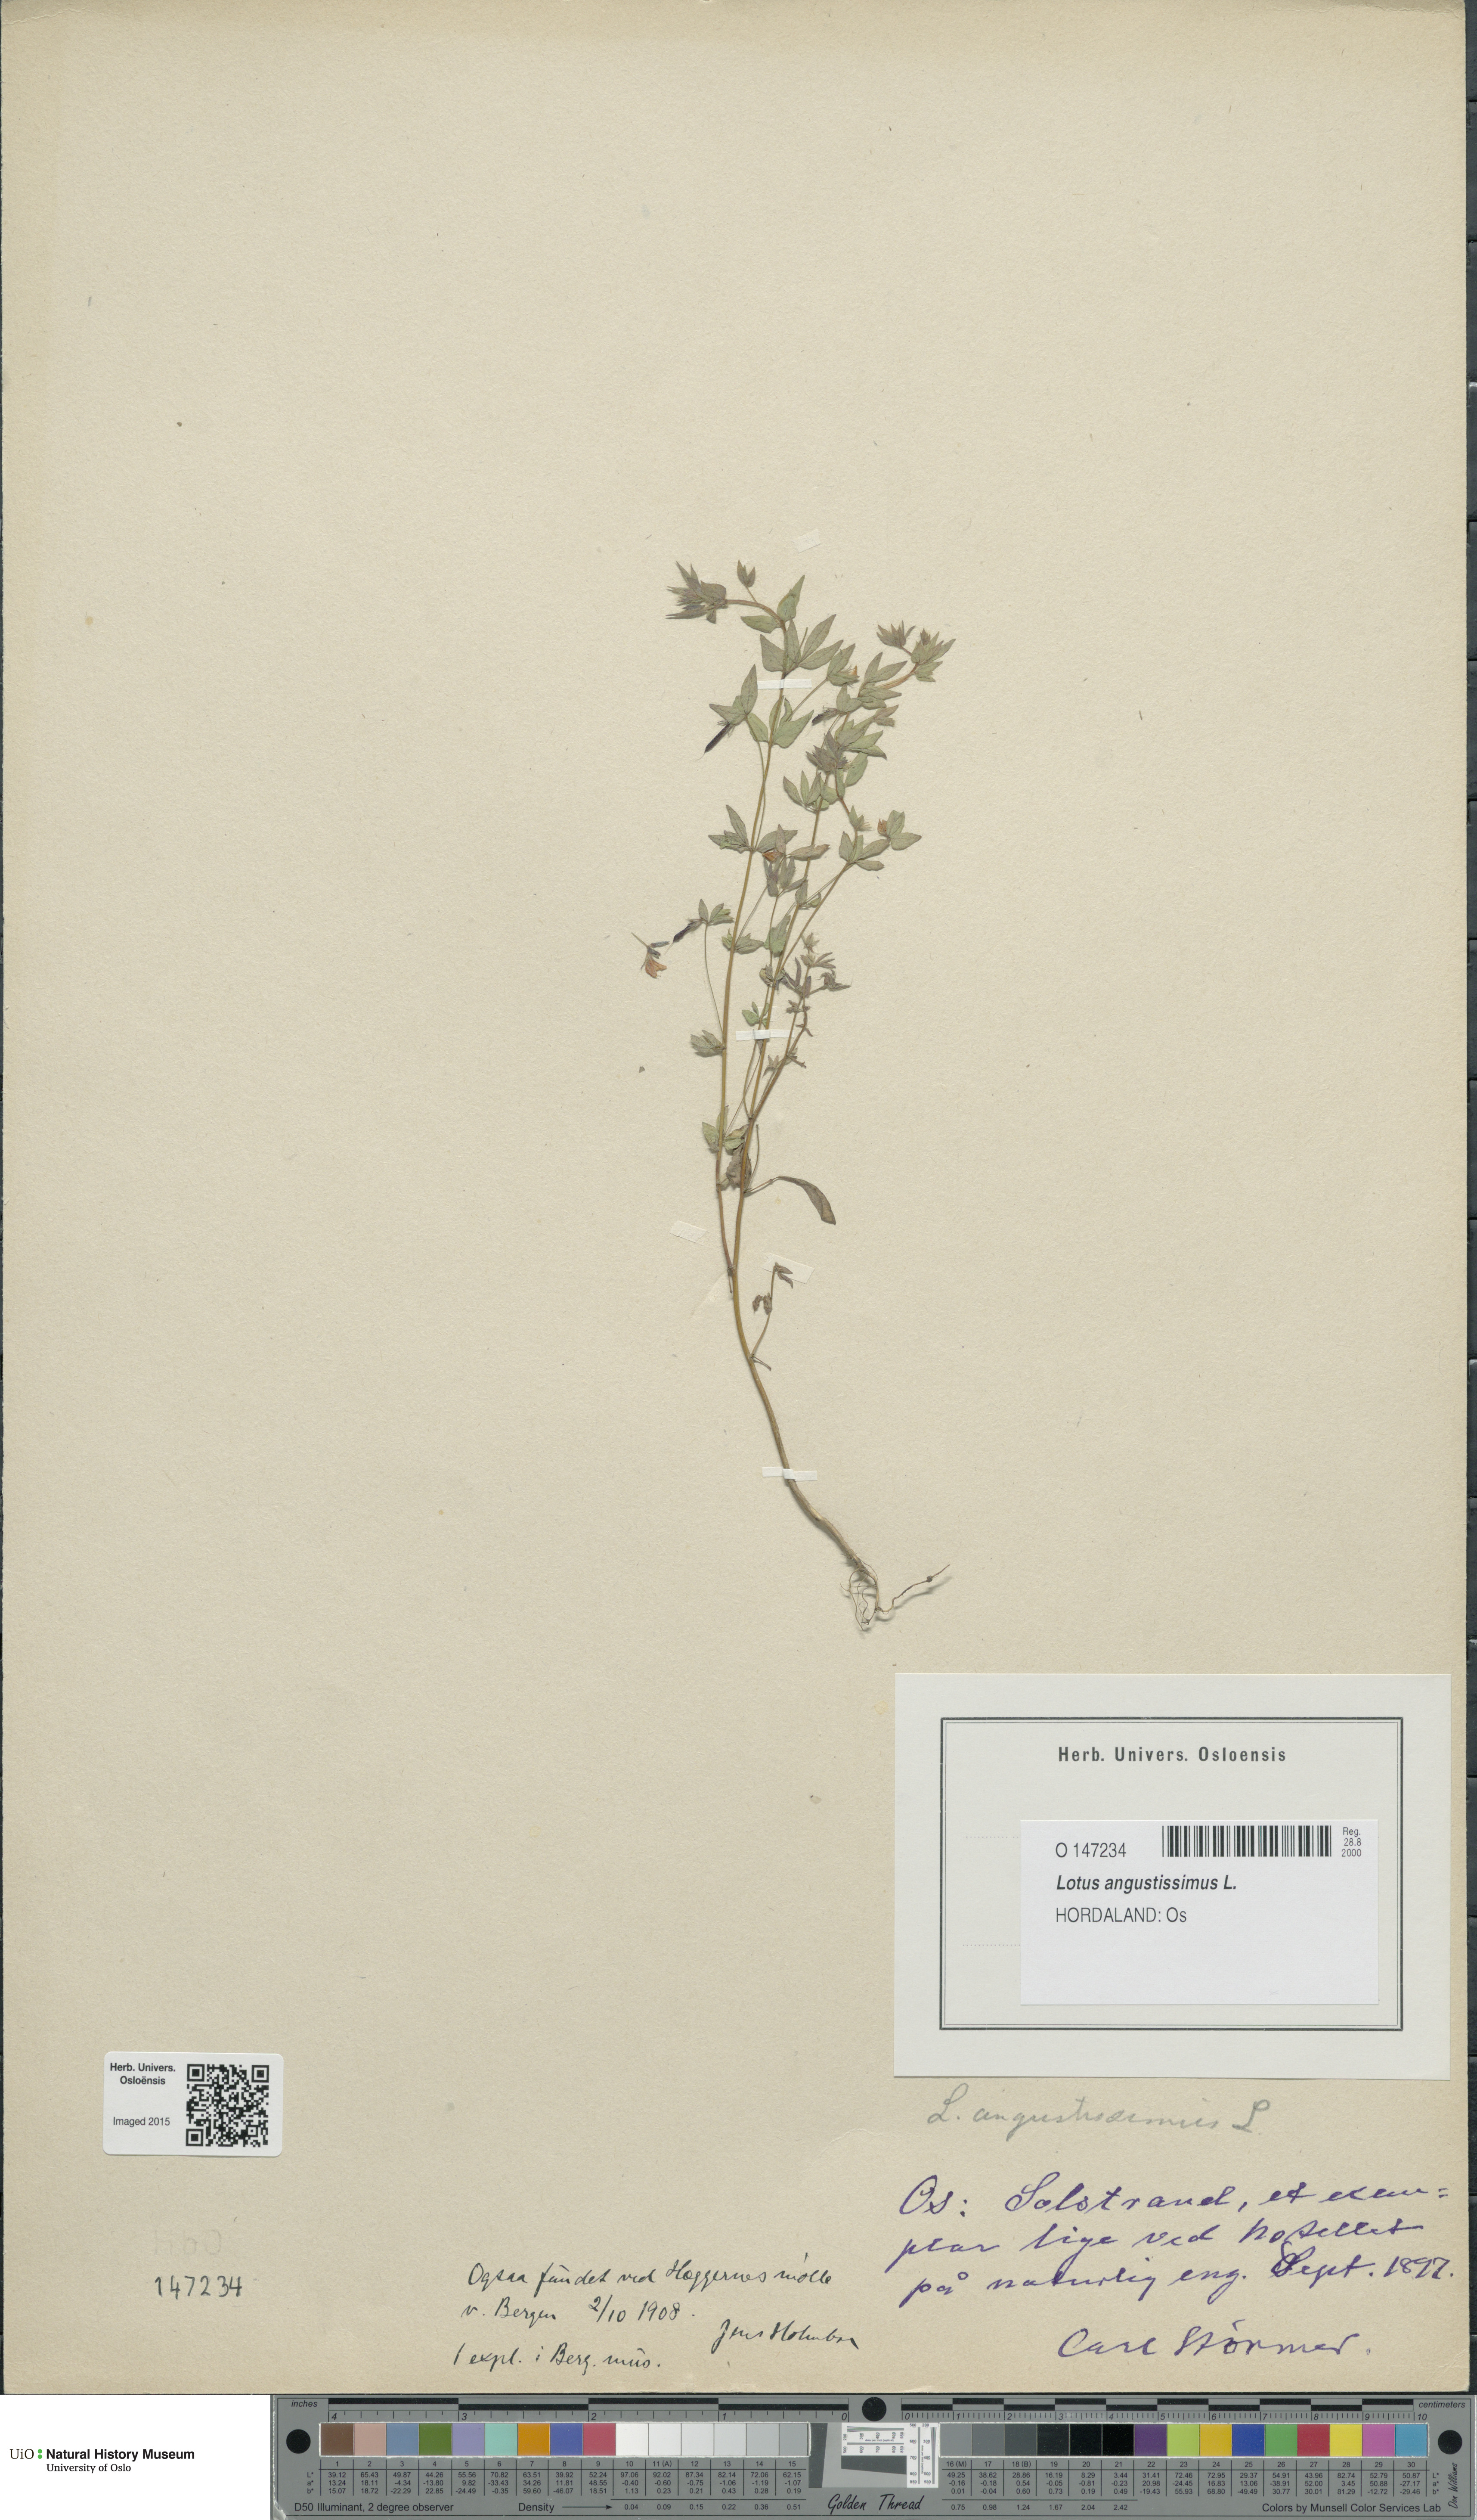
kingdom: Plantae
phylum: Tracheophyta
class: Magnoliopsida
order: Fabales
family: Fabaceae
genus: Lotus
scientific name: Lotus angustissimus
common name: Slender bird's-foot trefoil
